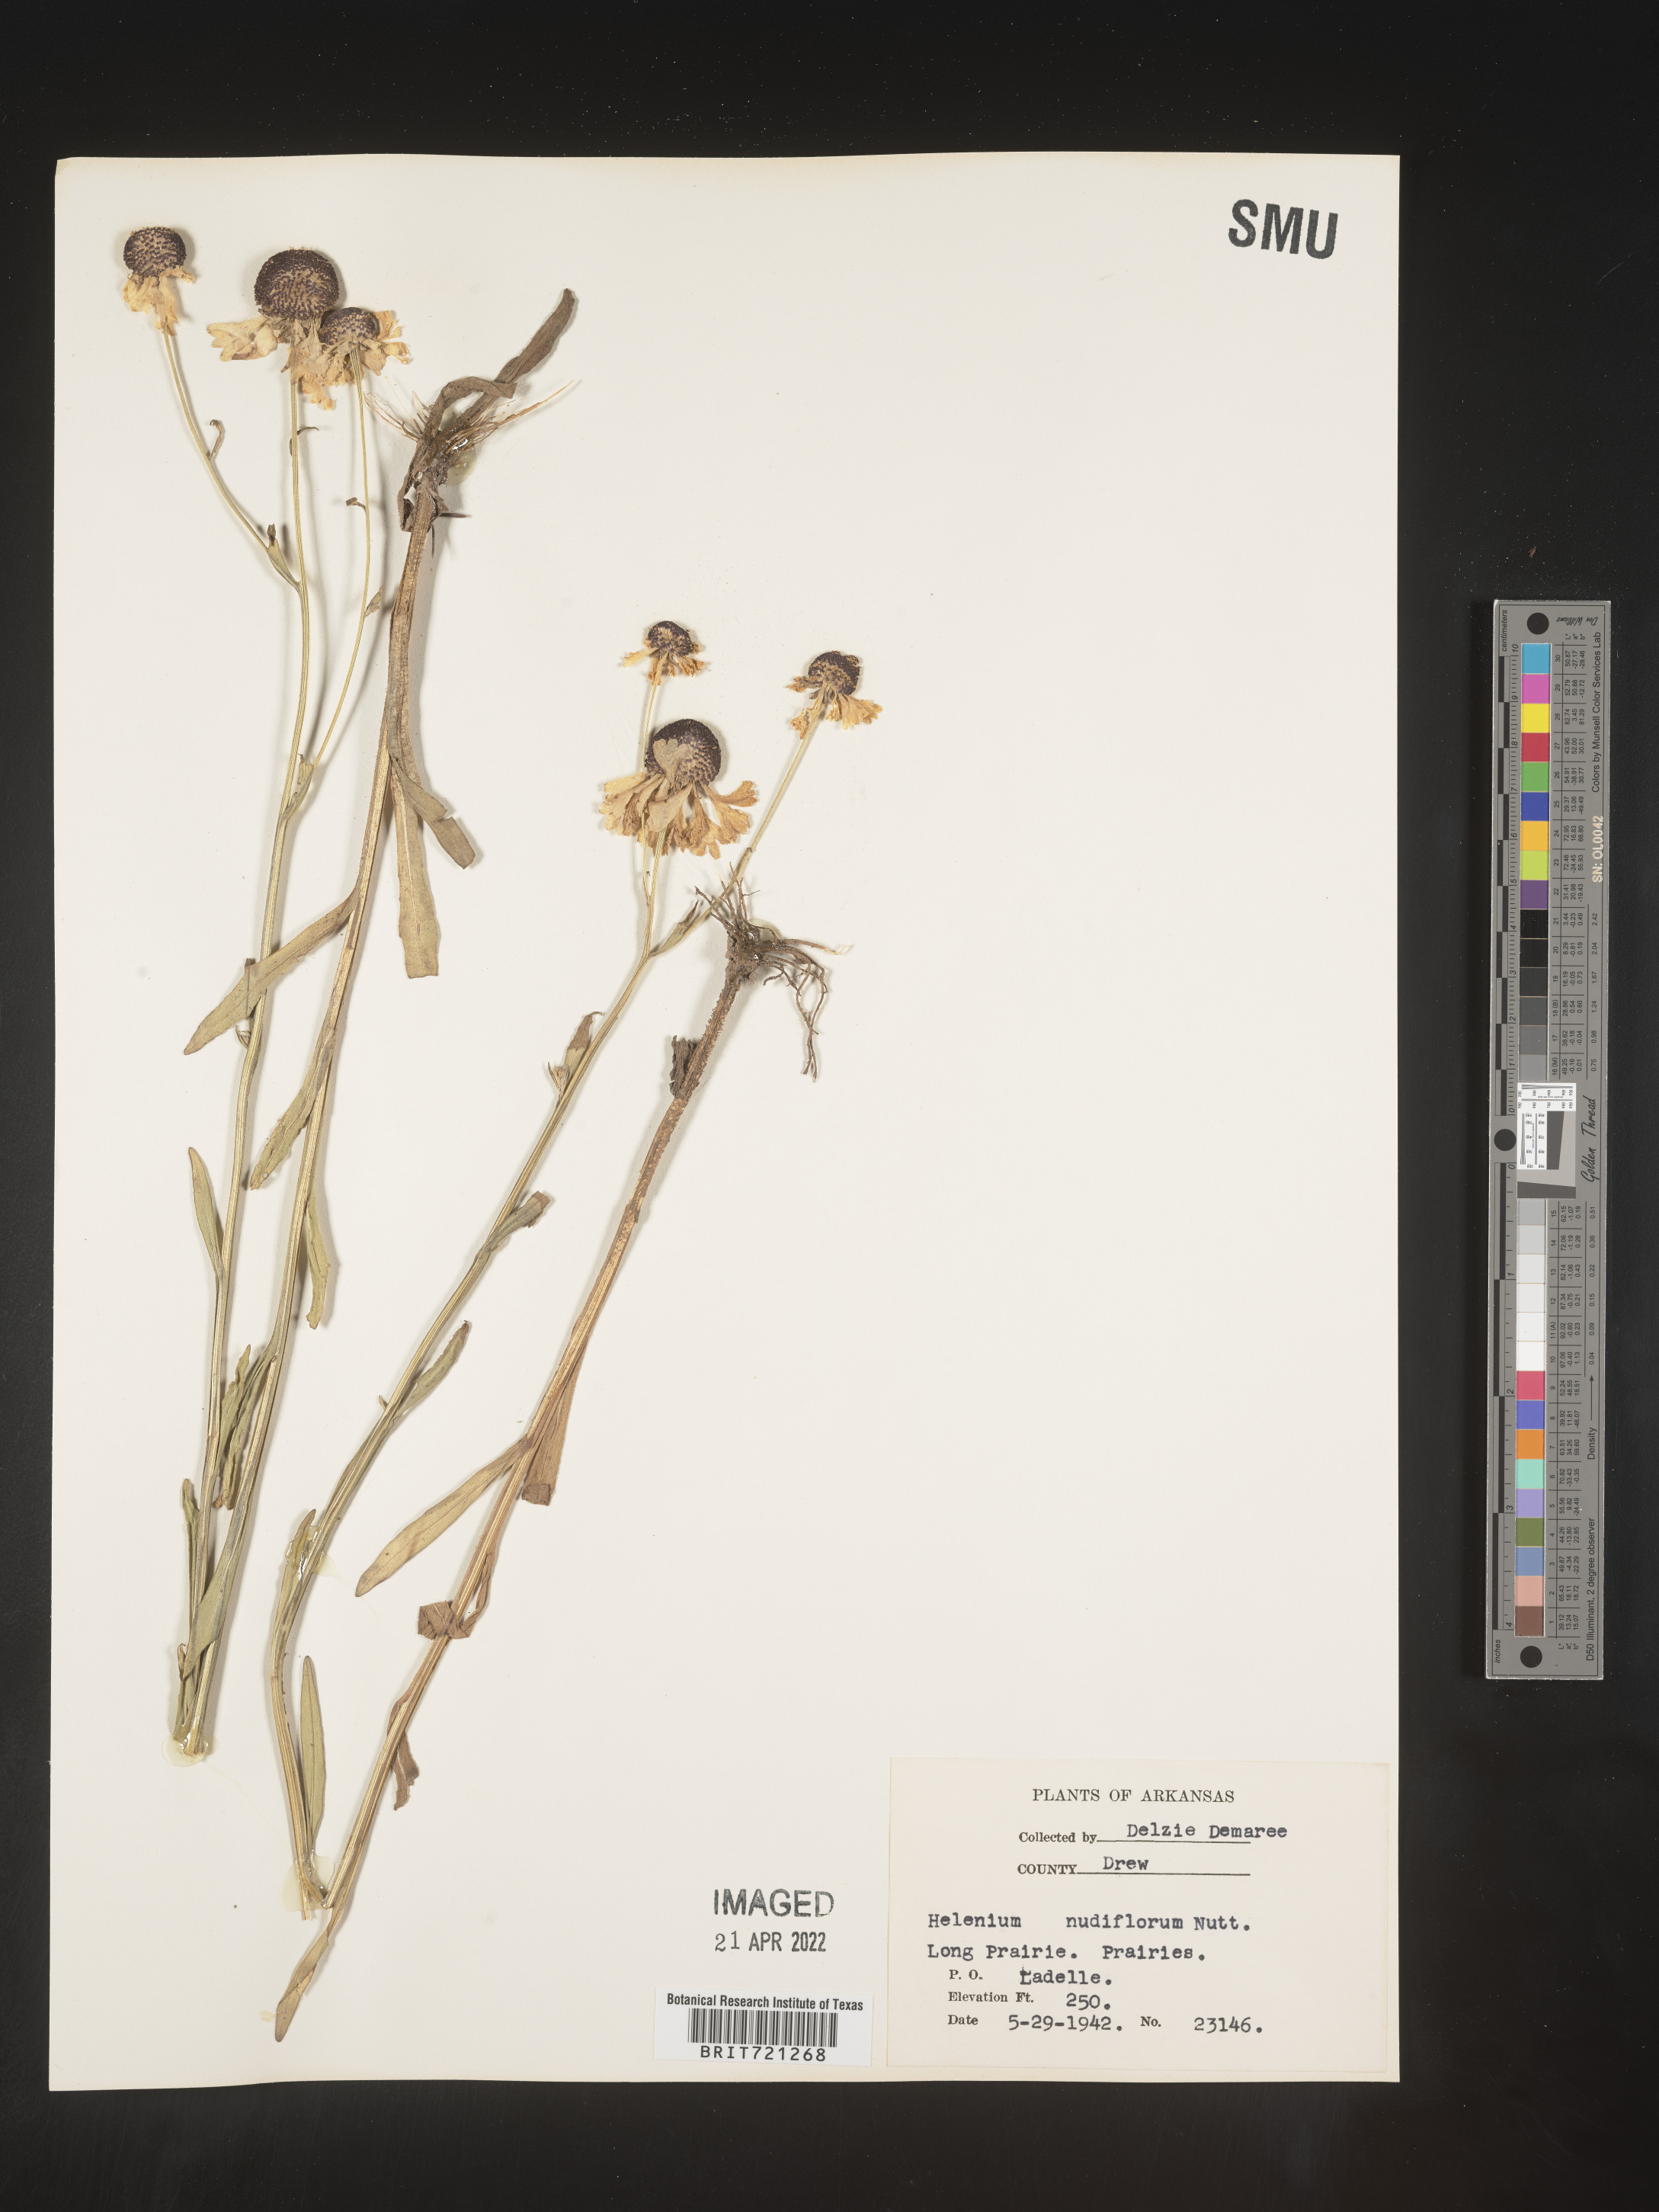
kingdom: Plantae
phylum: Tracheophyta
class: Magnoliopsida
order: Asterales
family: Asteraceae
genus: Helenium
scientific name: Helenium flexuosum
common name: Naked-flowered sneezeweed
